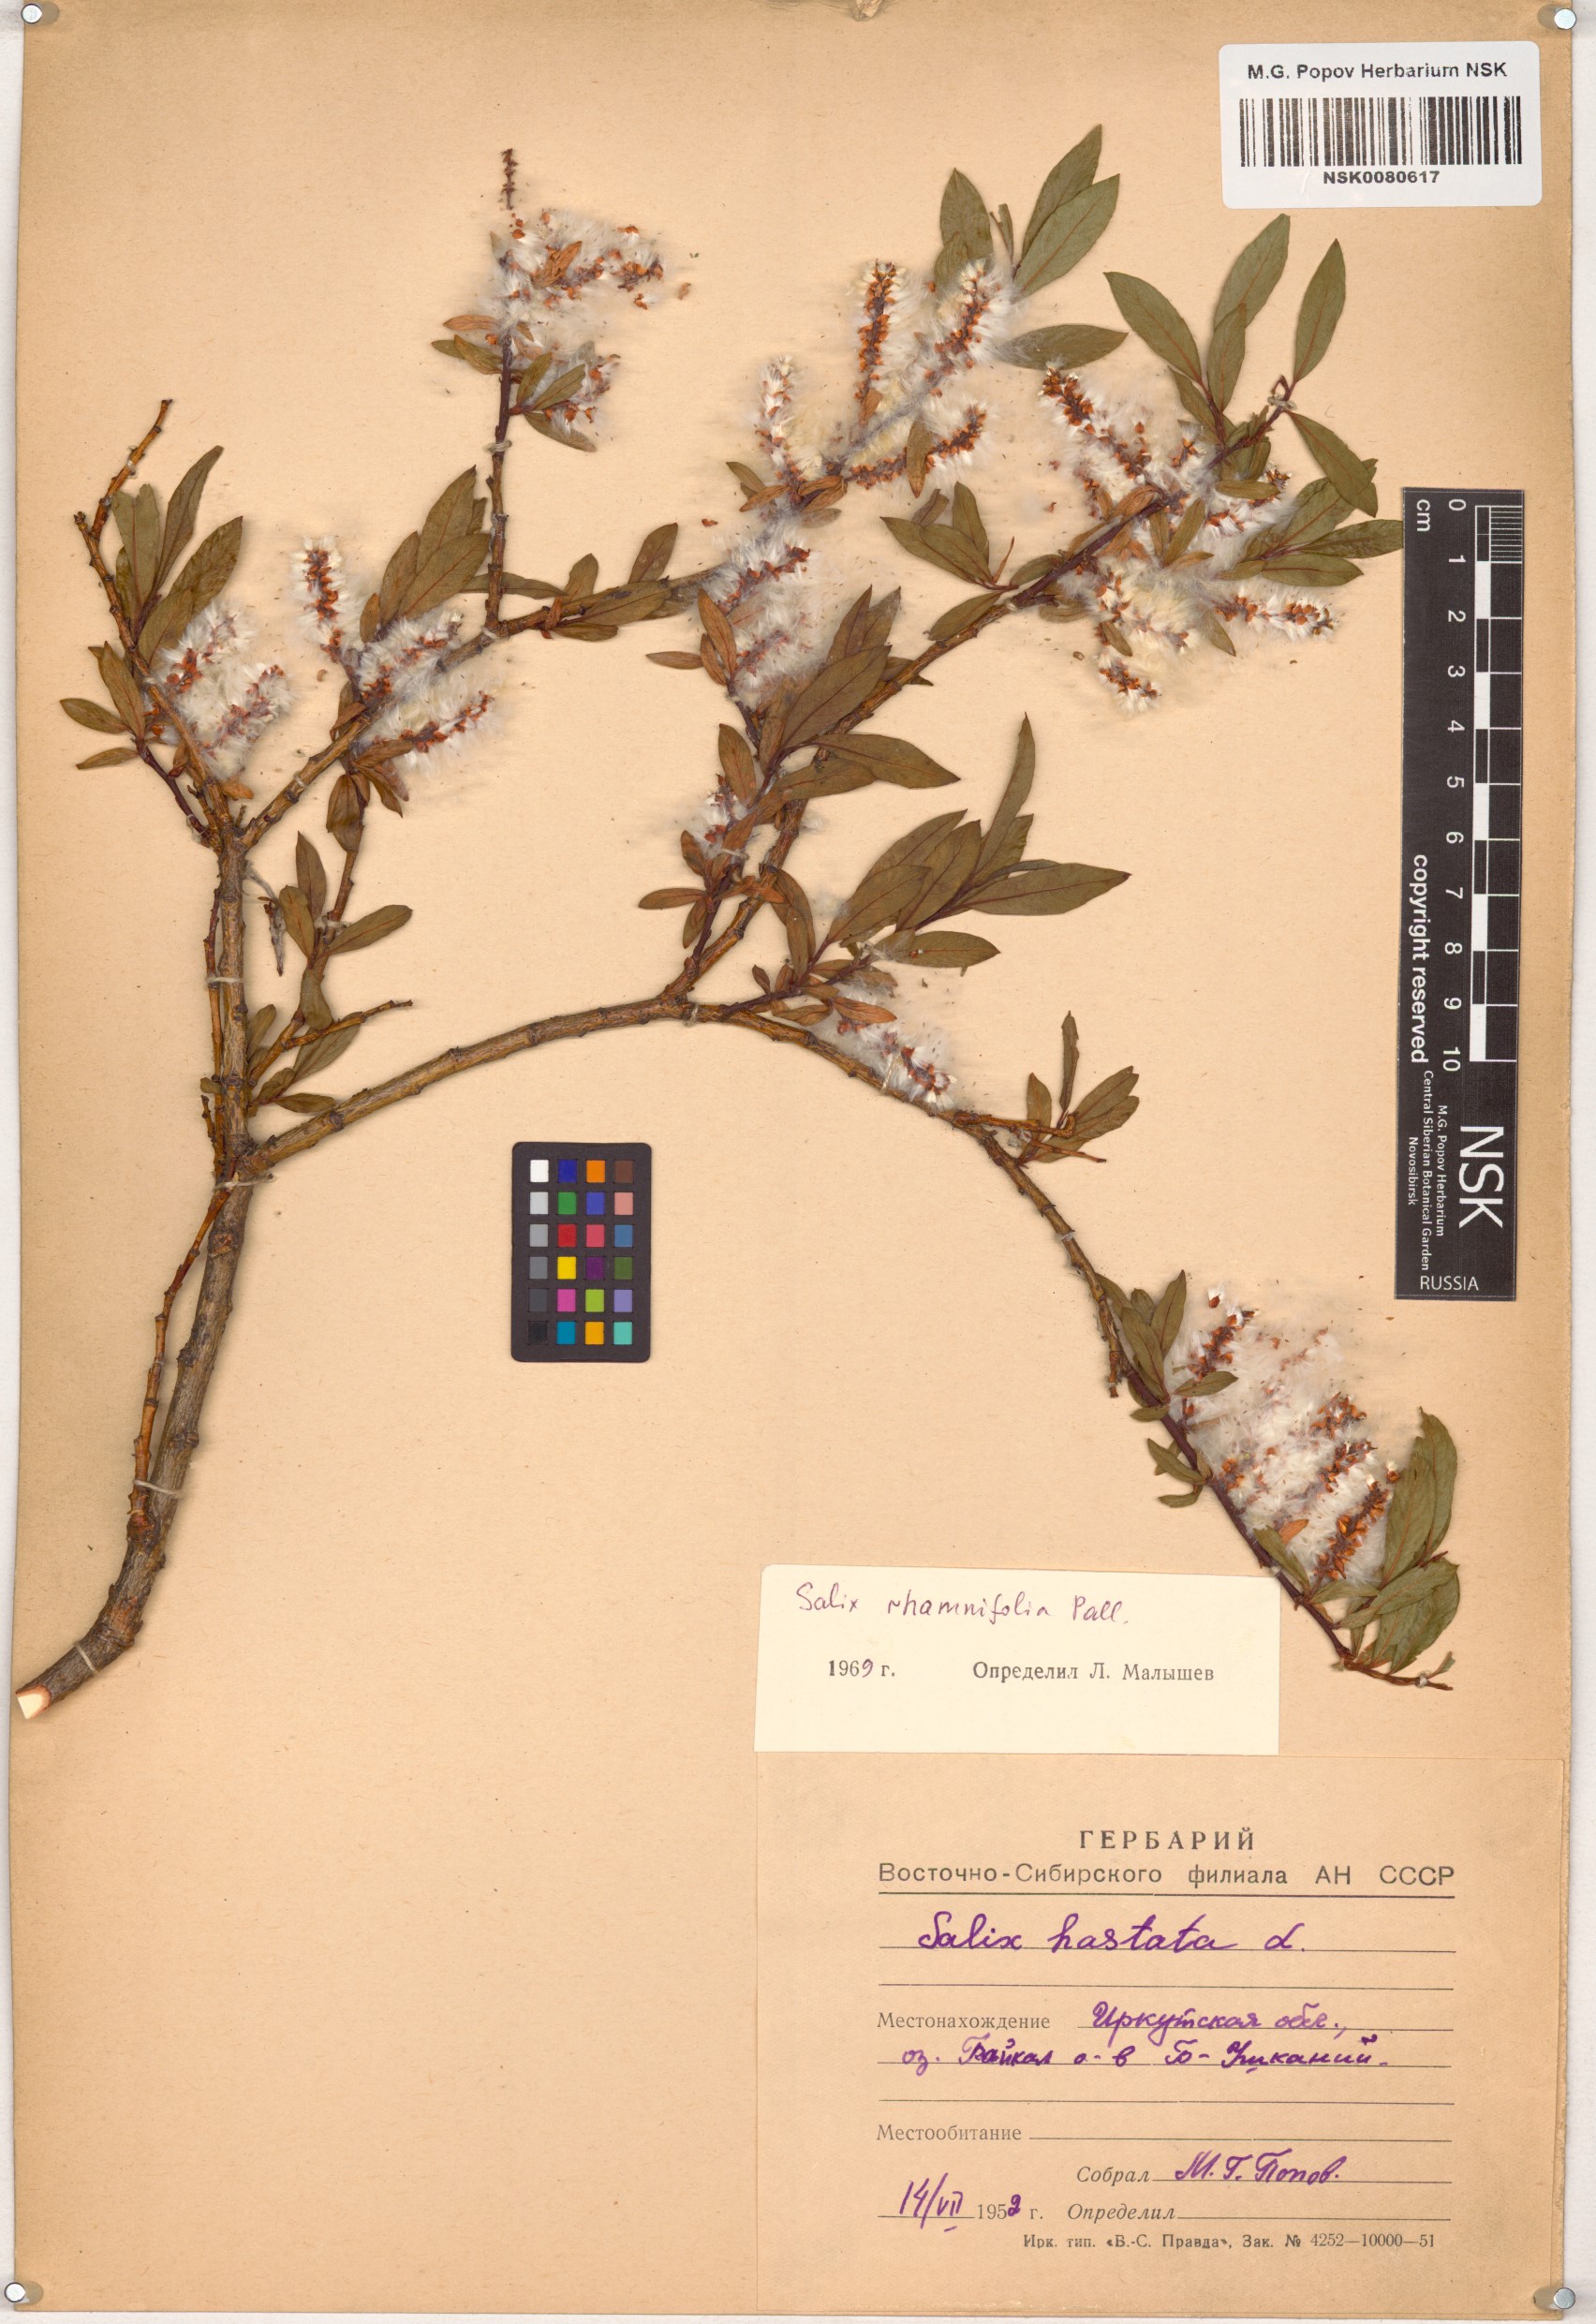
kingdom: Plantae
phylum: Tracheophyta
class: Magnoliopsida
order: Malpighiales
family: Salicaceae
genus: Salix
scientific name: Salix rhamnifolia
